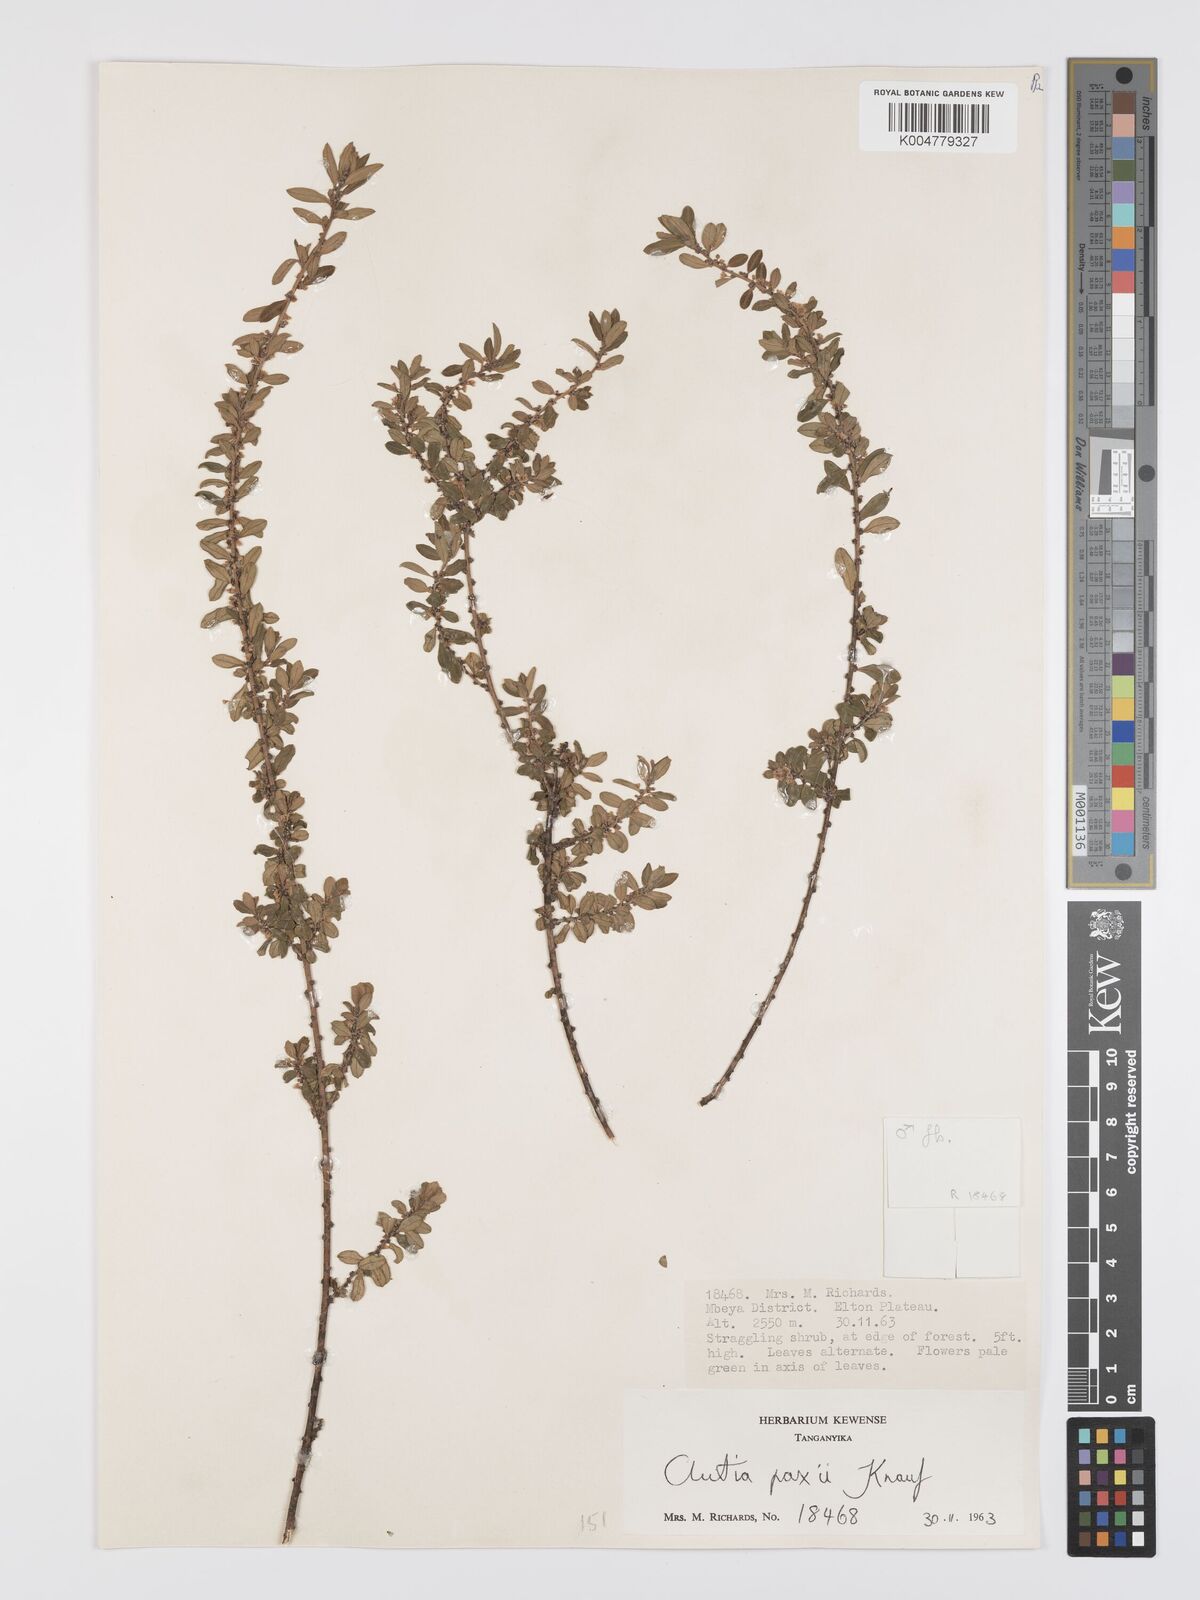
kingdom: Plantae
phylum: Tracheophyta
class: Magnoliopsida
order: Malpighiales
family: Peraceae
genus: Clutia
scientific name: Clutia paxii
